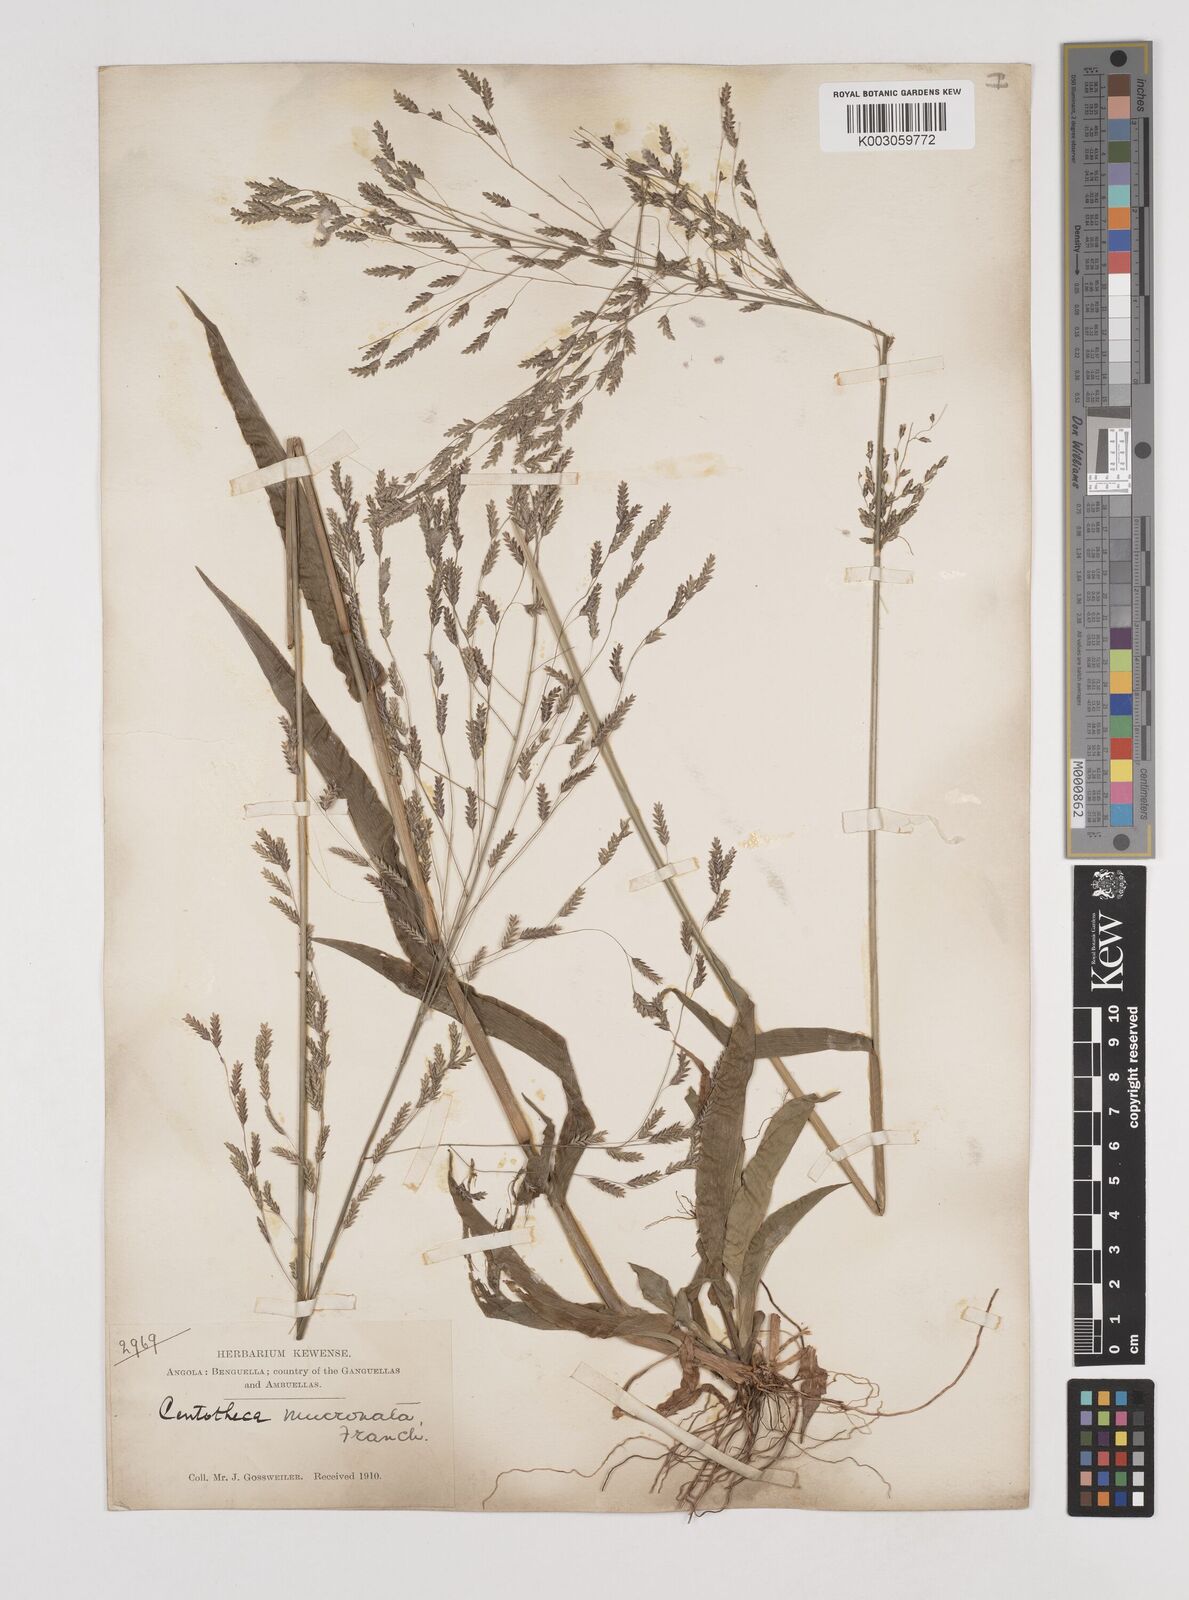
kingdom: Plantae
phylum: Tracheophyta
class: Liliopsida
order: Poales
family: Poaceae
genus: Megastachya
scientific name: Megastachya mucronata
